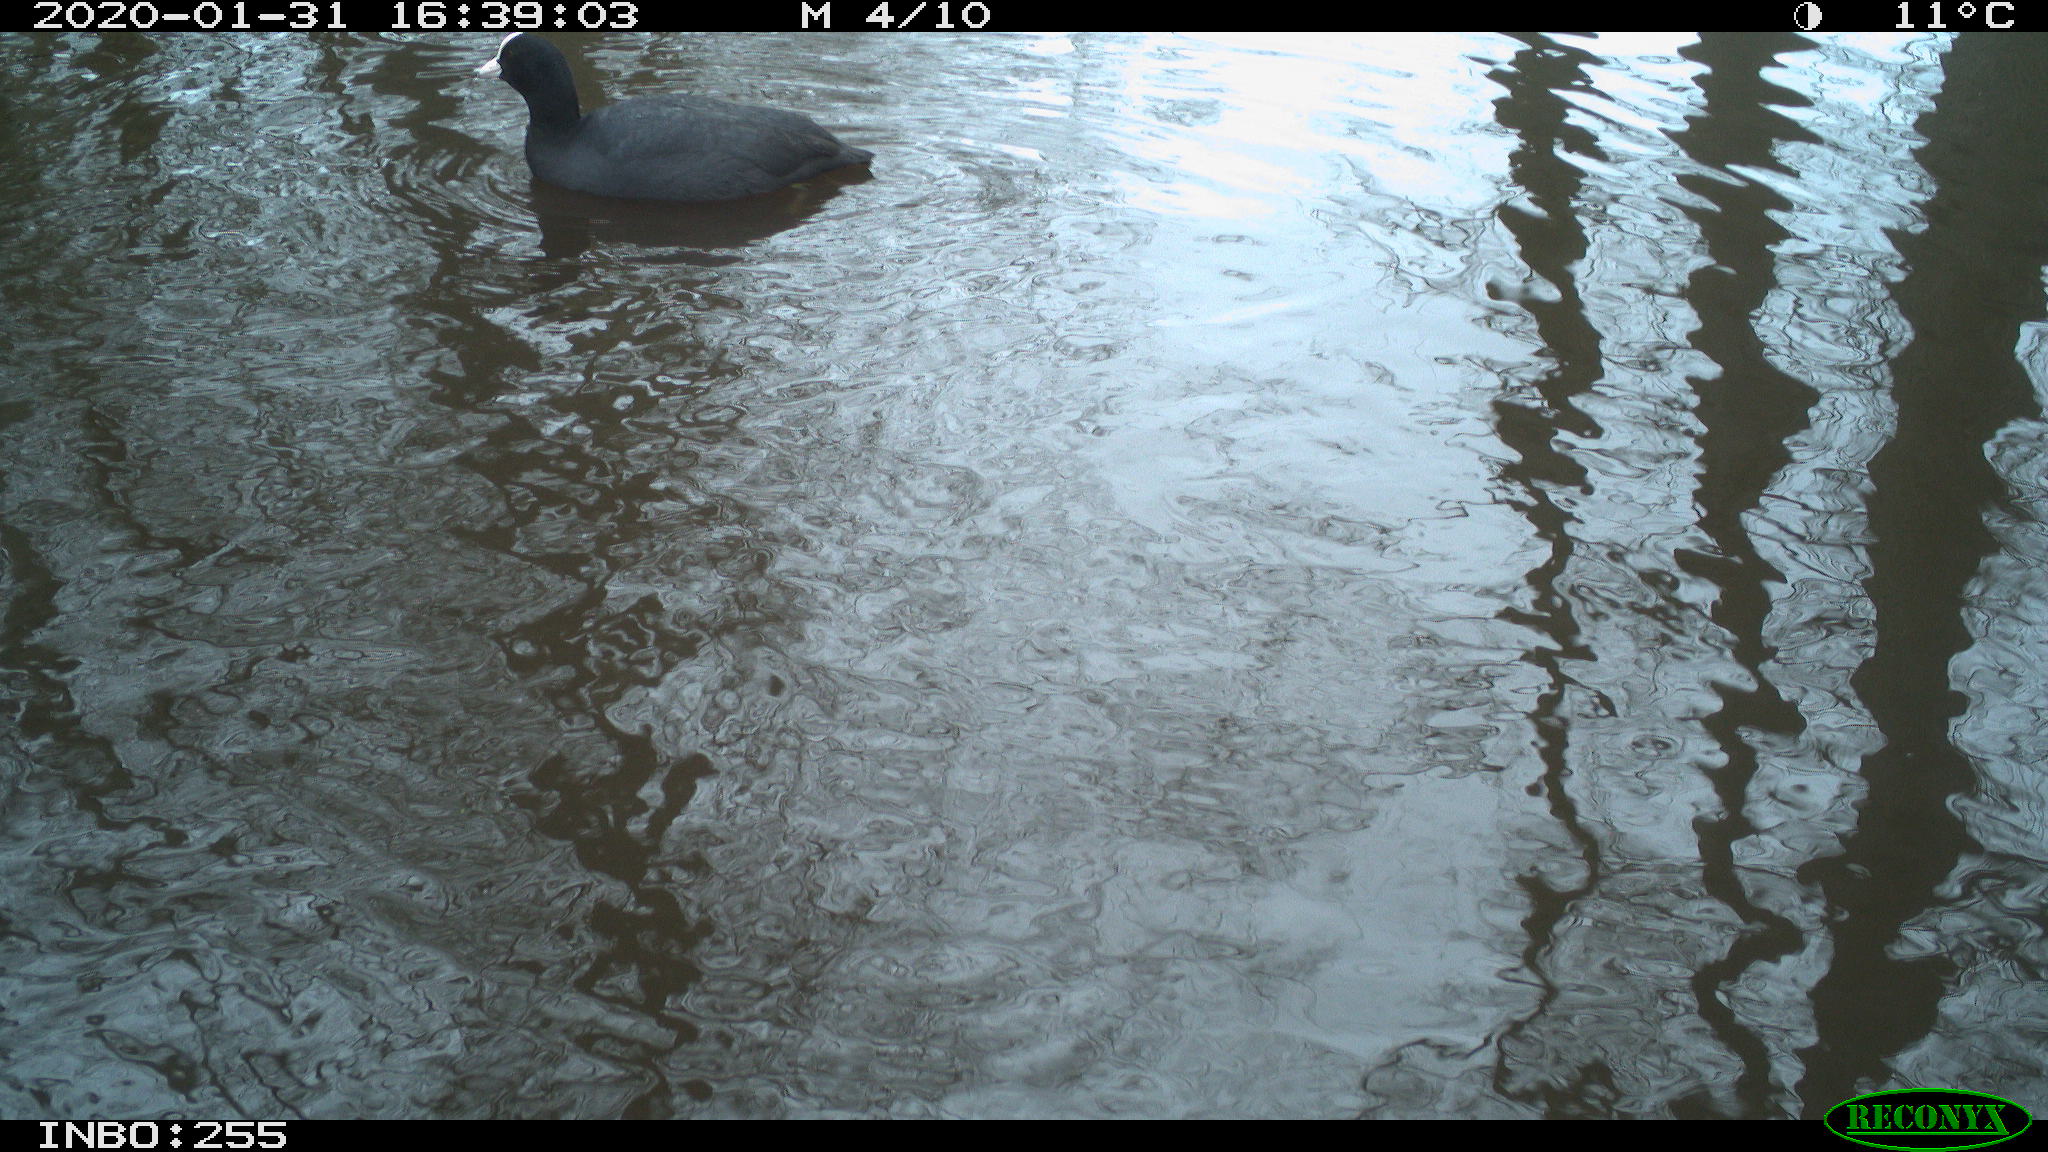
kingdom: Animalia
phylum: Chordata
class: Aves
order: Gruiformes
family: Rallidae
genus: Fulica
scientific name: Fulica atra
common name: Eurasian coot
